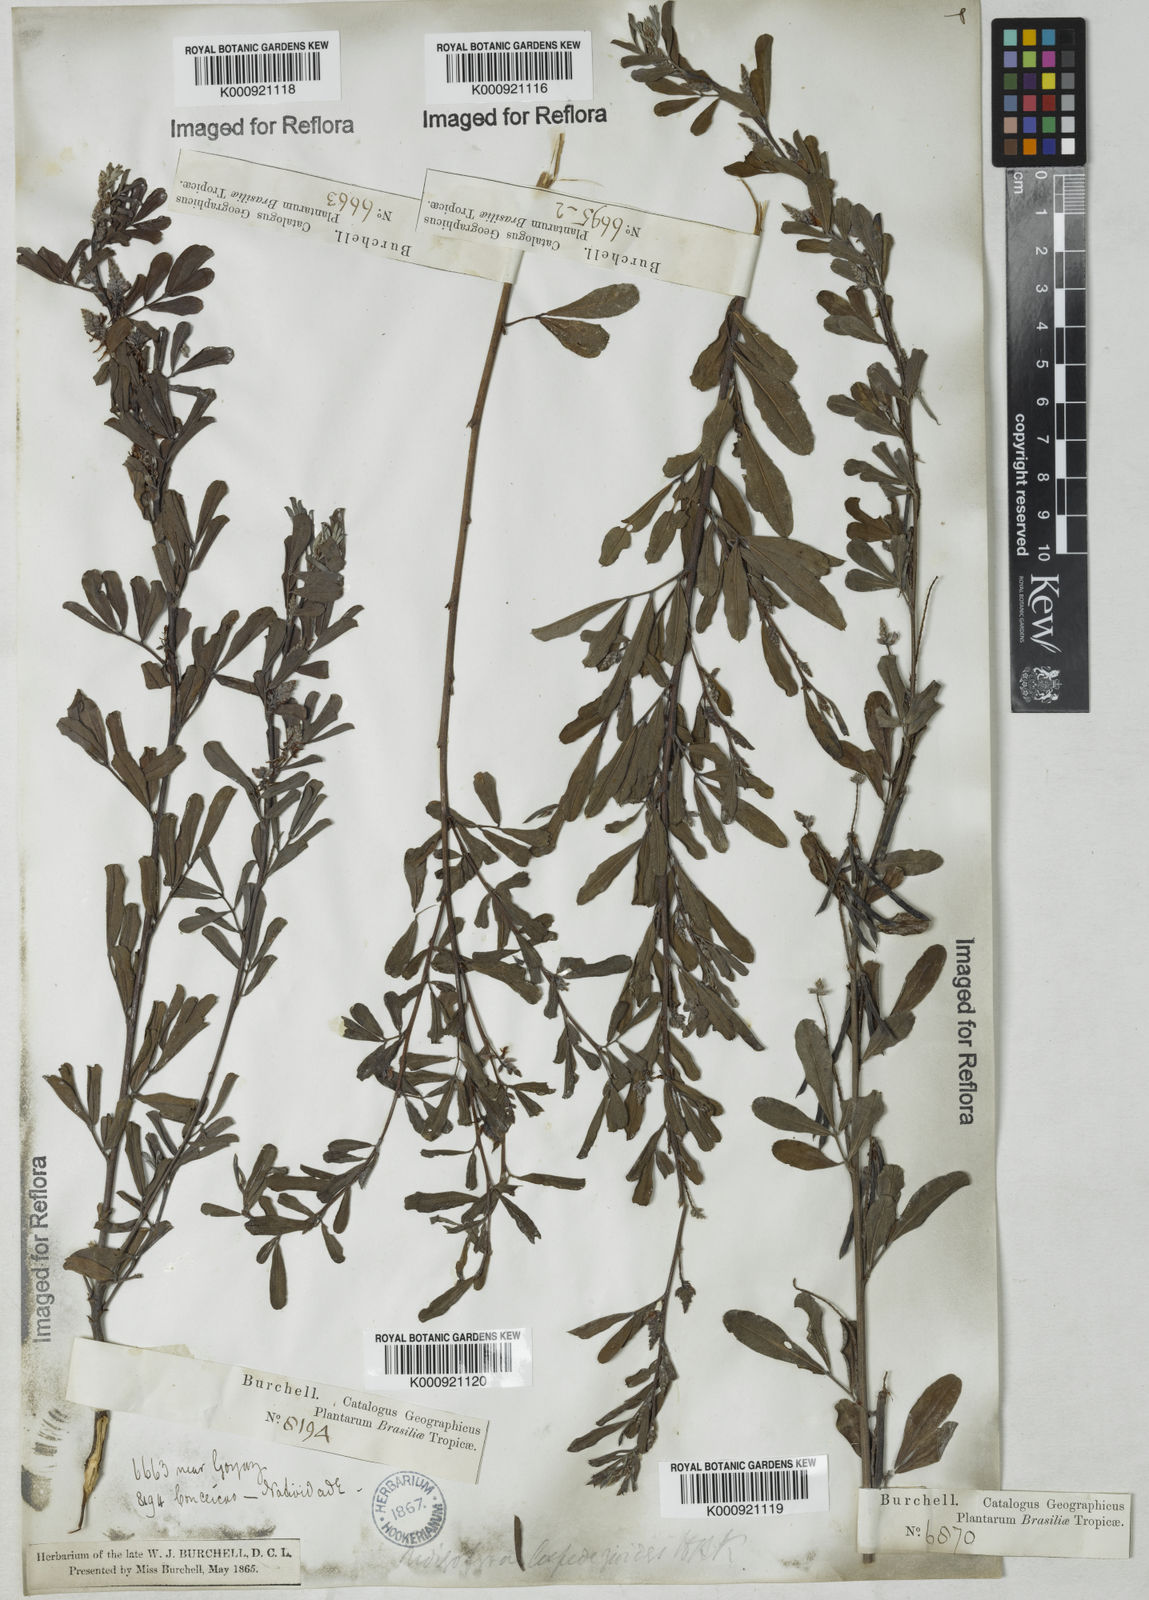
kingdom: Plantae
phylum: Tracheophyta
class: Magnoliopsida
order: Fabales
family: Fabaceae
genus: Indigofera
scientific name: Indigofera lespedezioides
